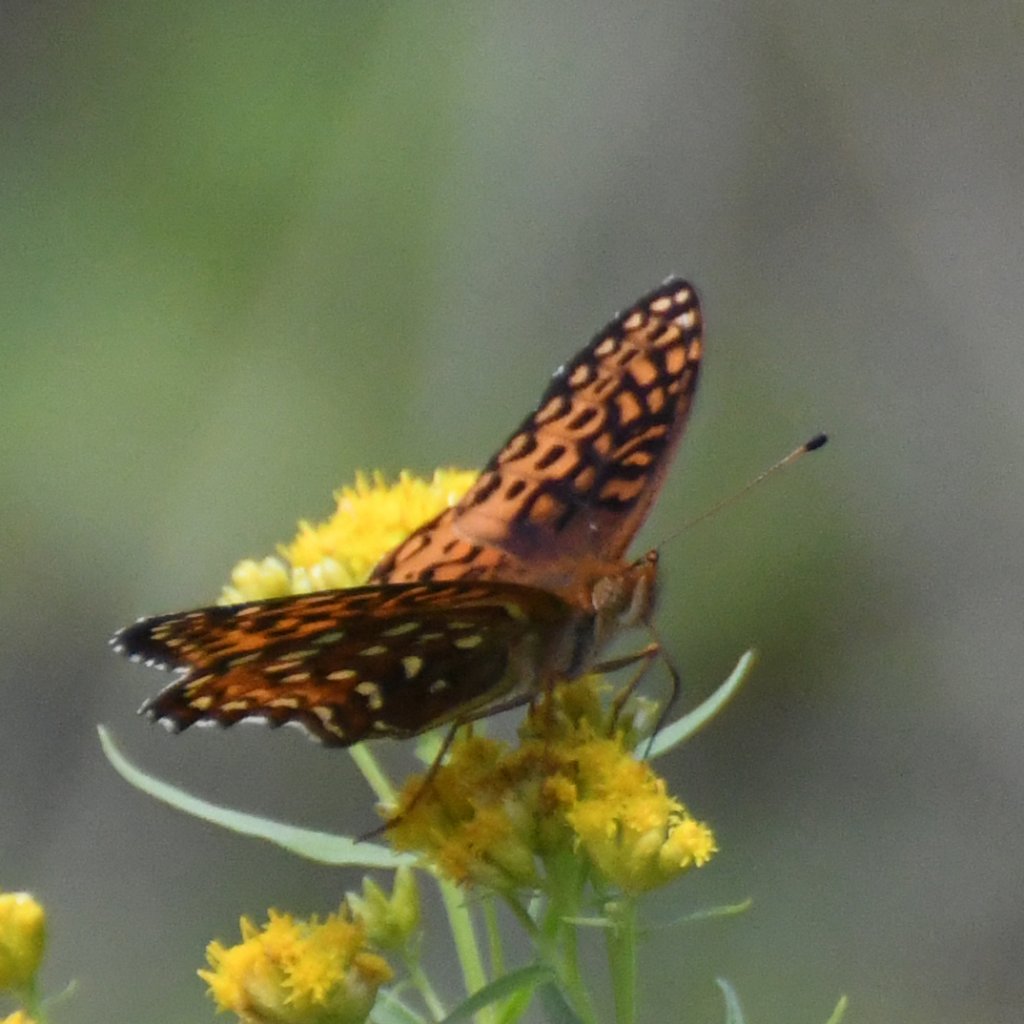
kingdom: Animalia
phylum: Arthropoda
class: Insecta
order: Lepidoptera
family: Nymphalidae
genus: Speyeria
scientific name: Speyeria aphrodite
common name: Aphrodite Fritillary
